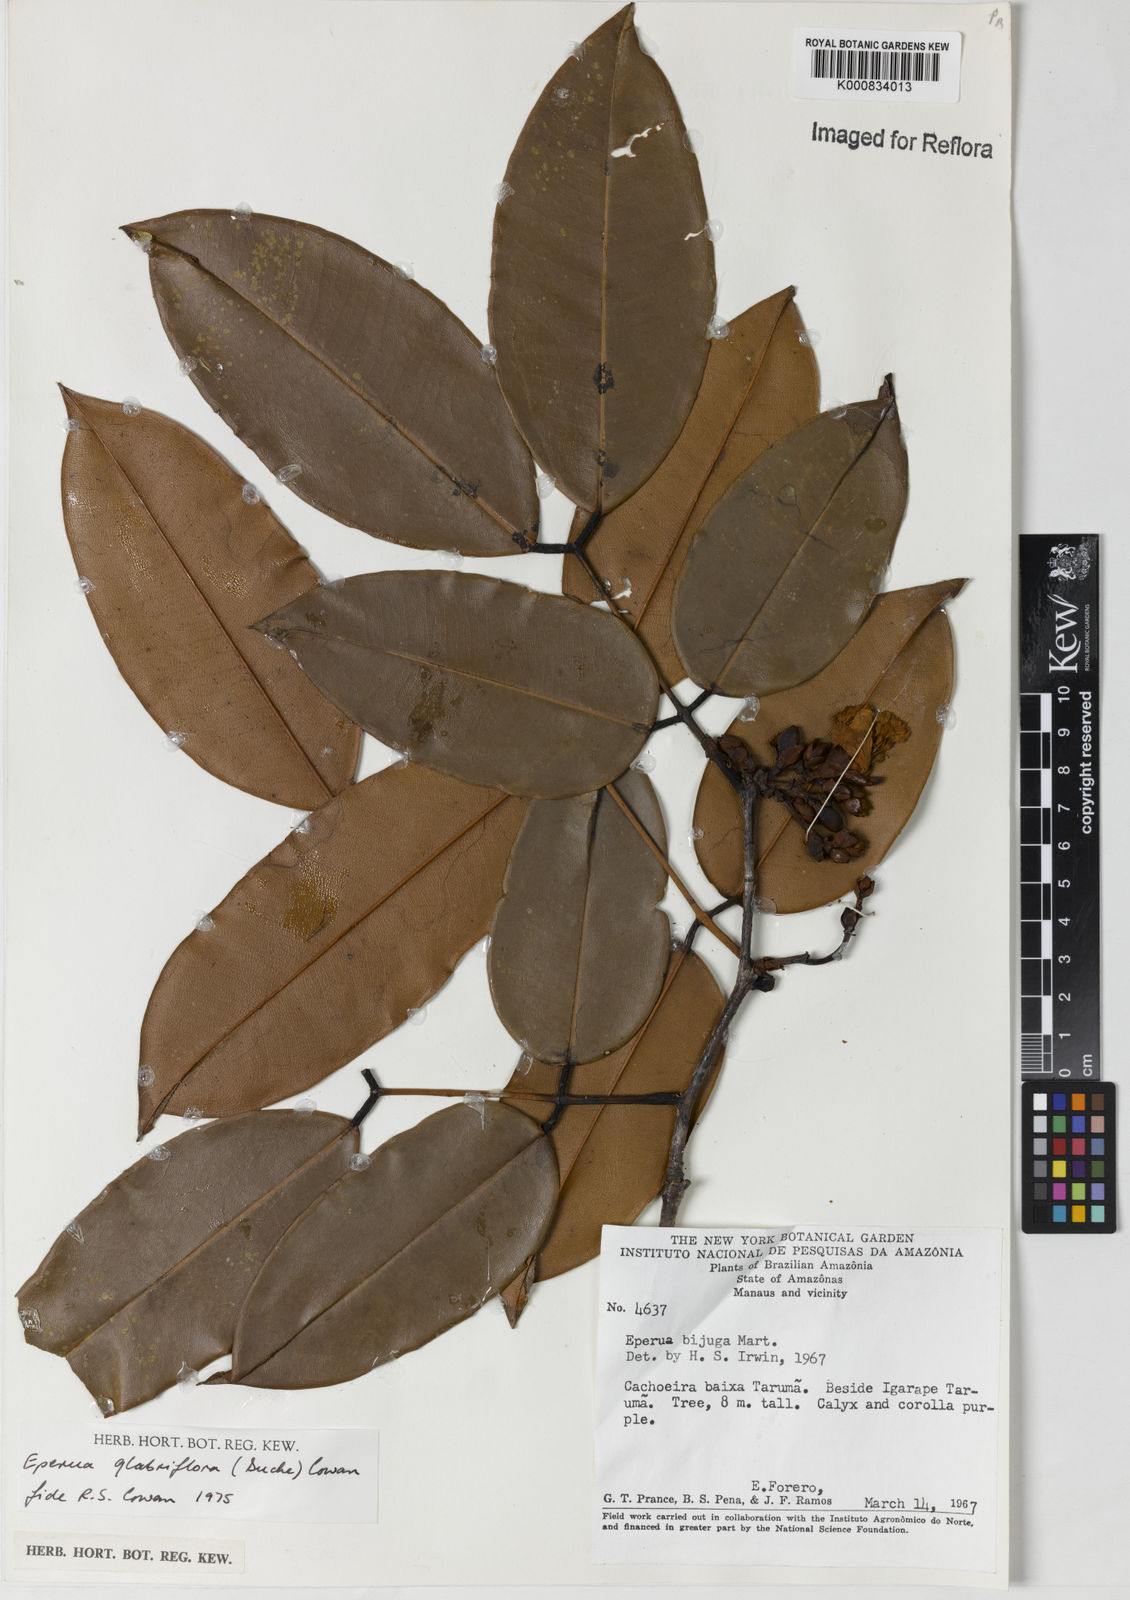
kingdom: Plantae
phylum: Tracheophyta
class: Magnoliopsida
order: Fabales
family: Fabaceae
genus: Eperua
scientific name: Eperua glabriflora
